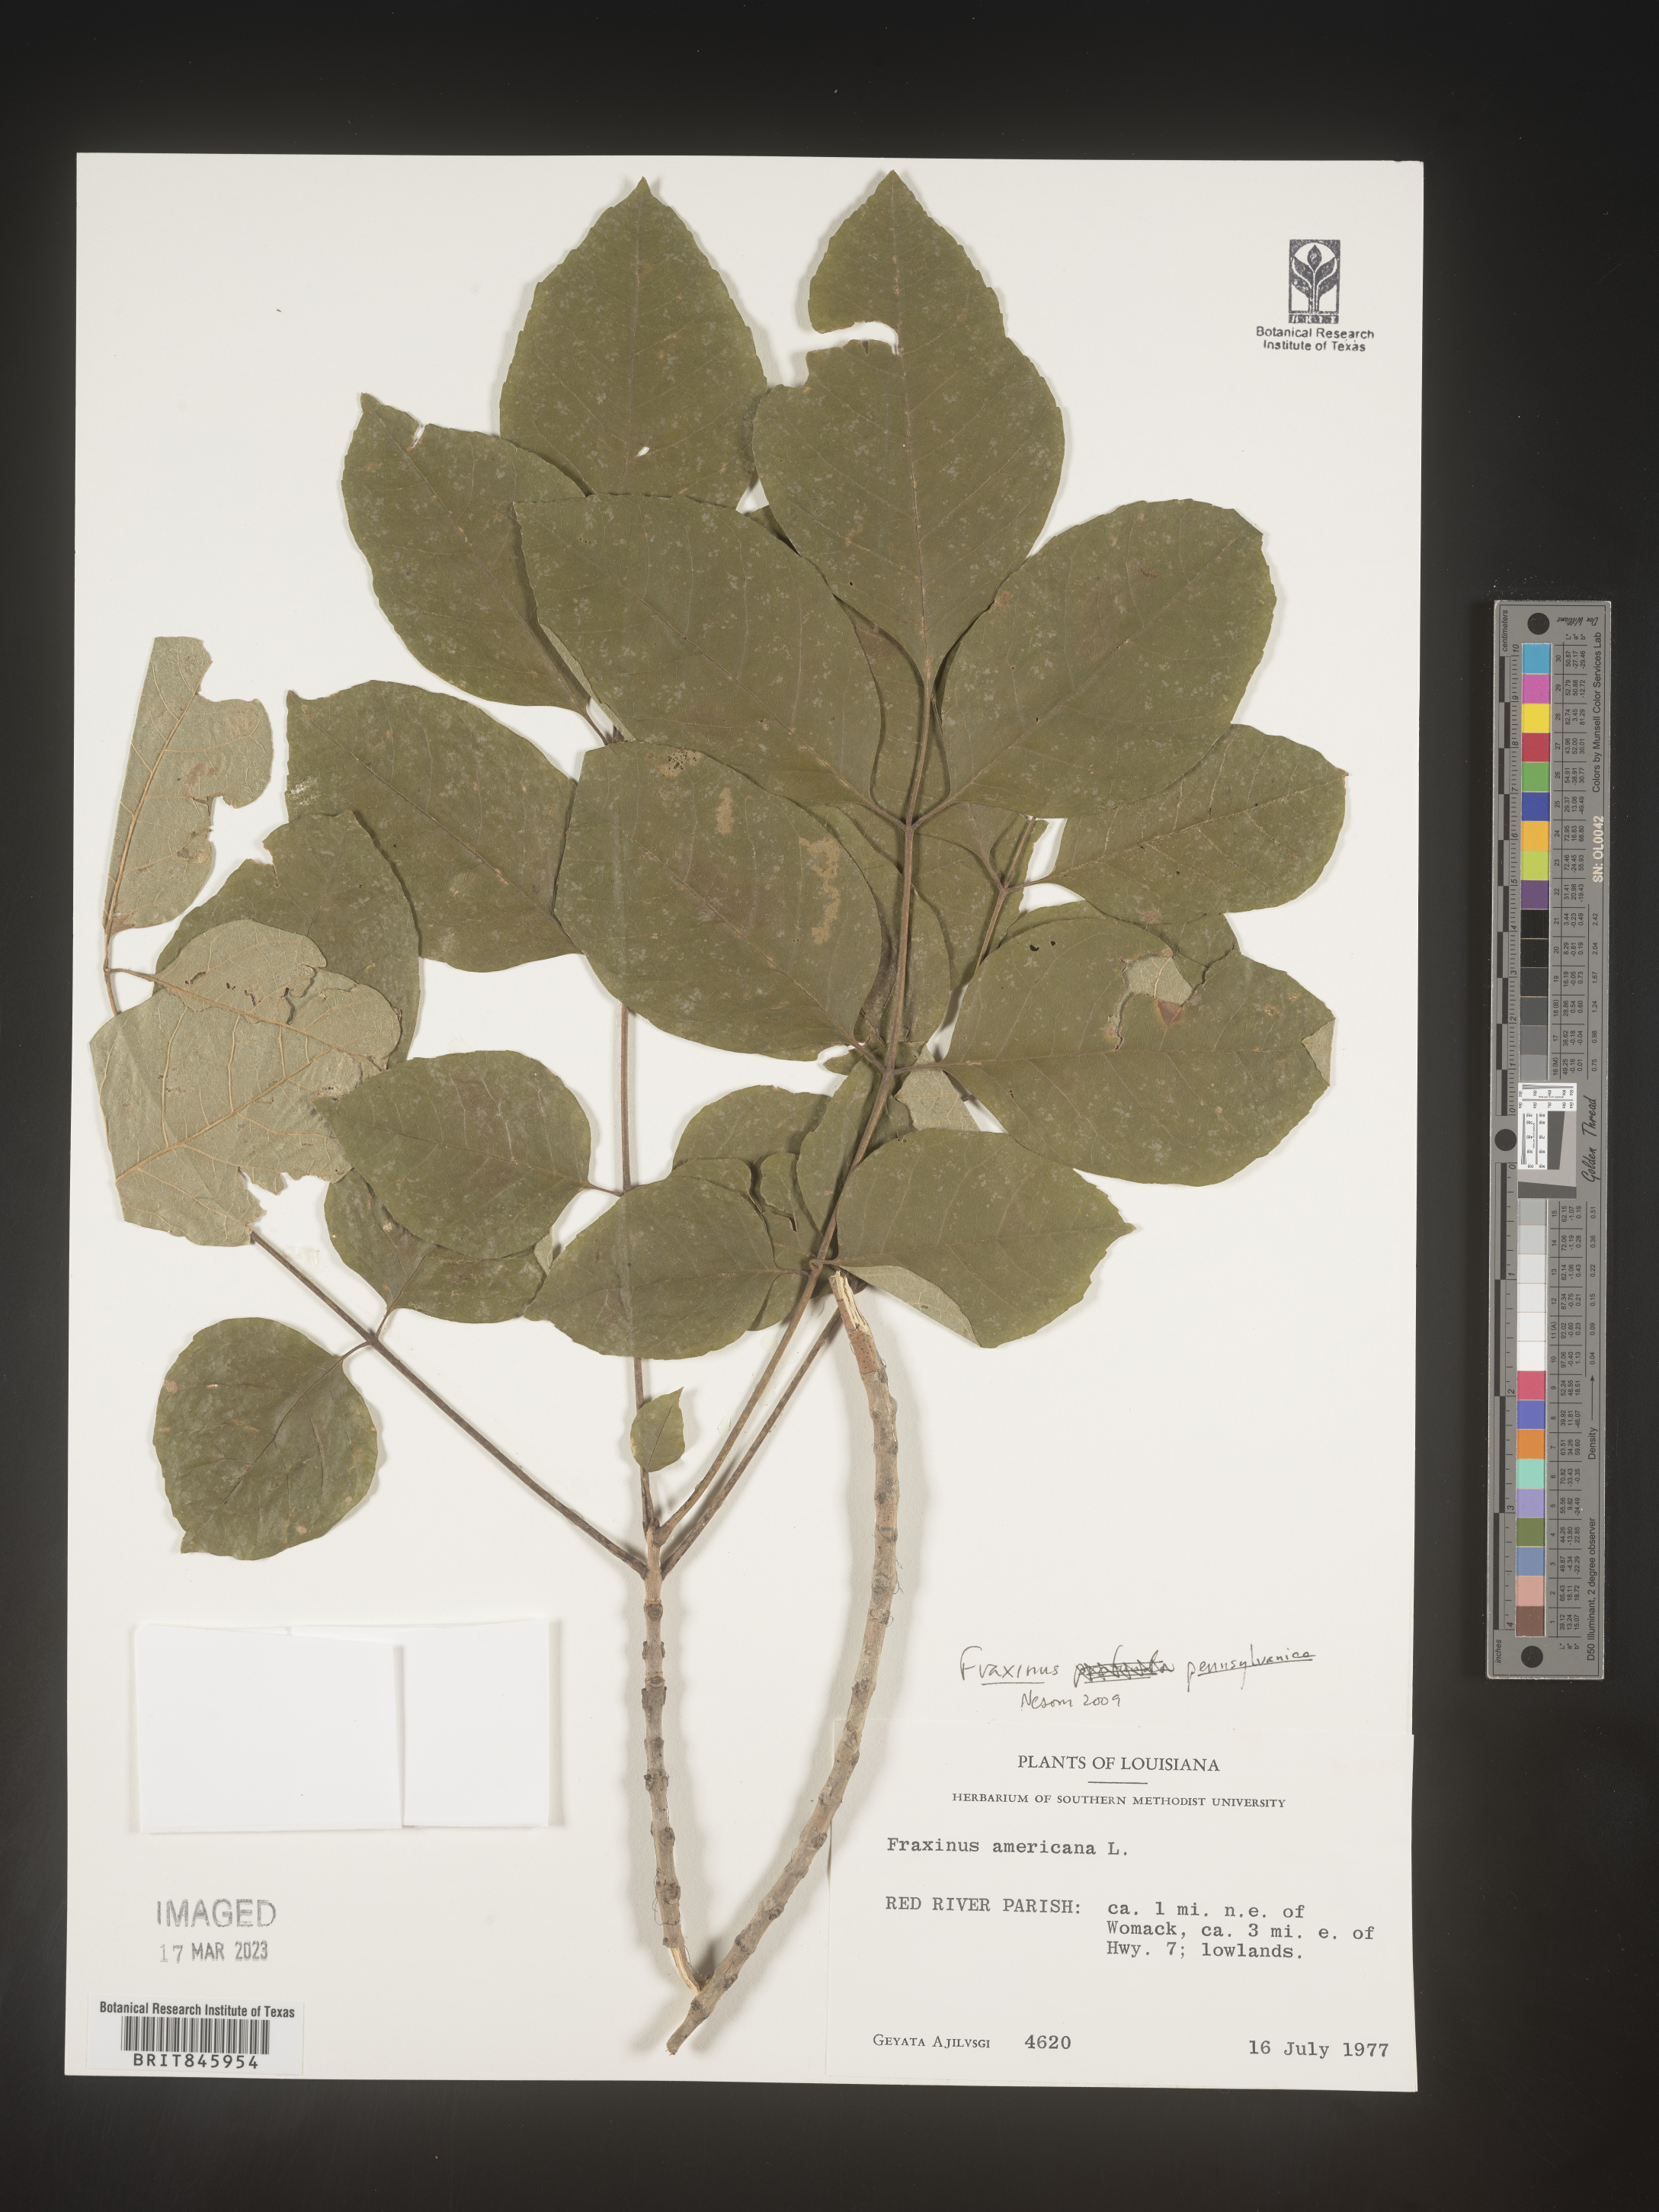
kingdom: Plantae
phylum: Tracheophyta
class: Magnoliopsida
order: Lamiales
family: Oleaceae
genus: Fraxinus
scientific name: Fraxinus
